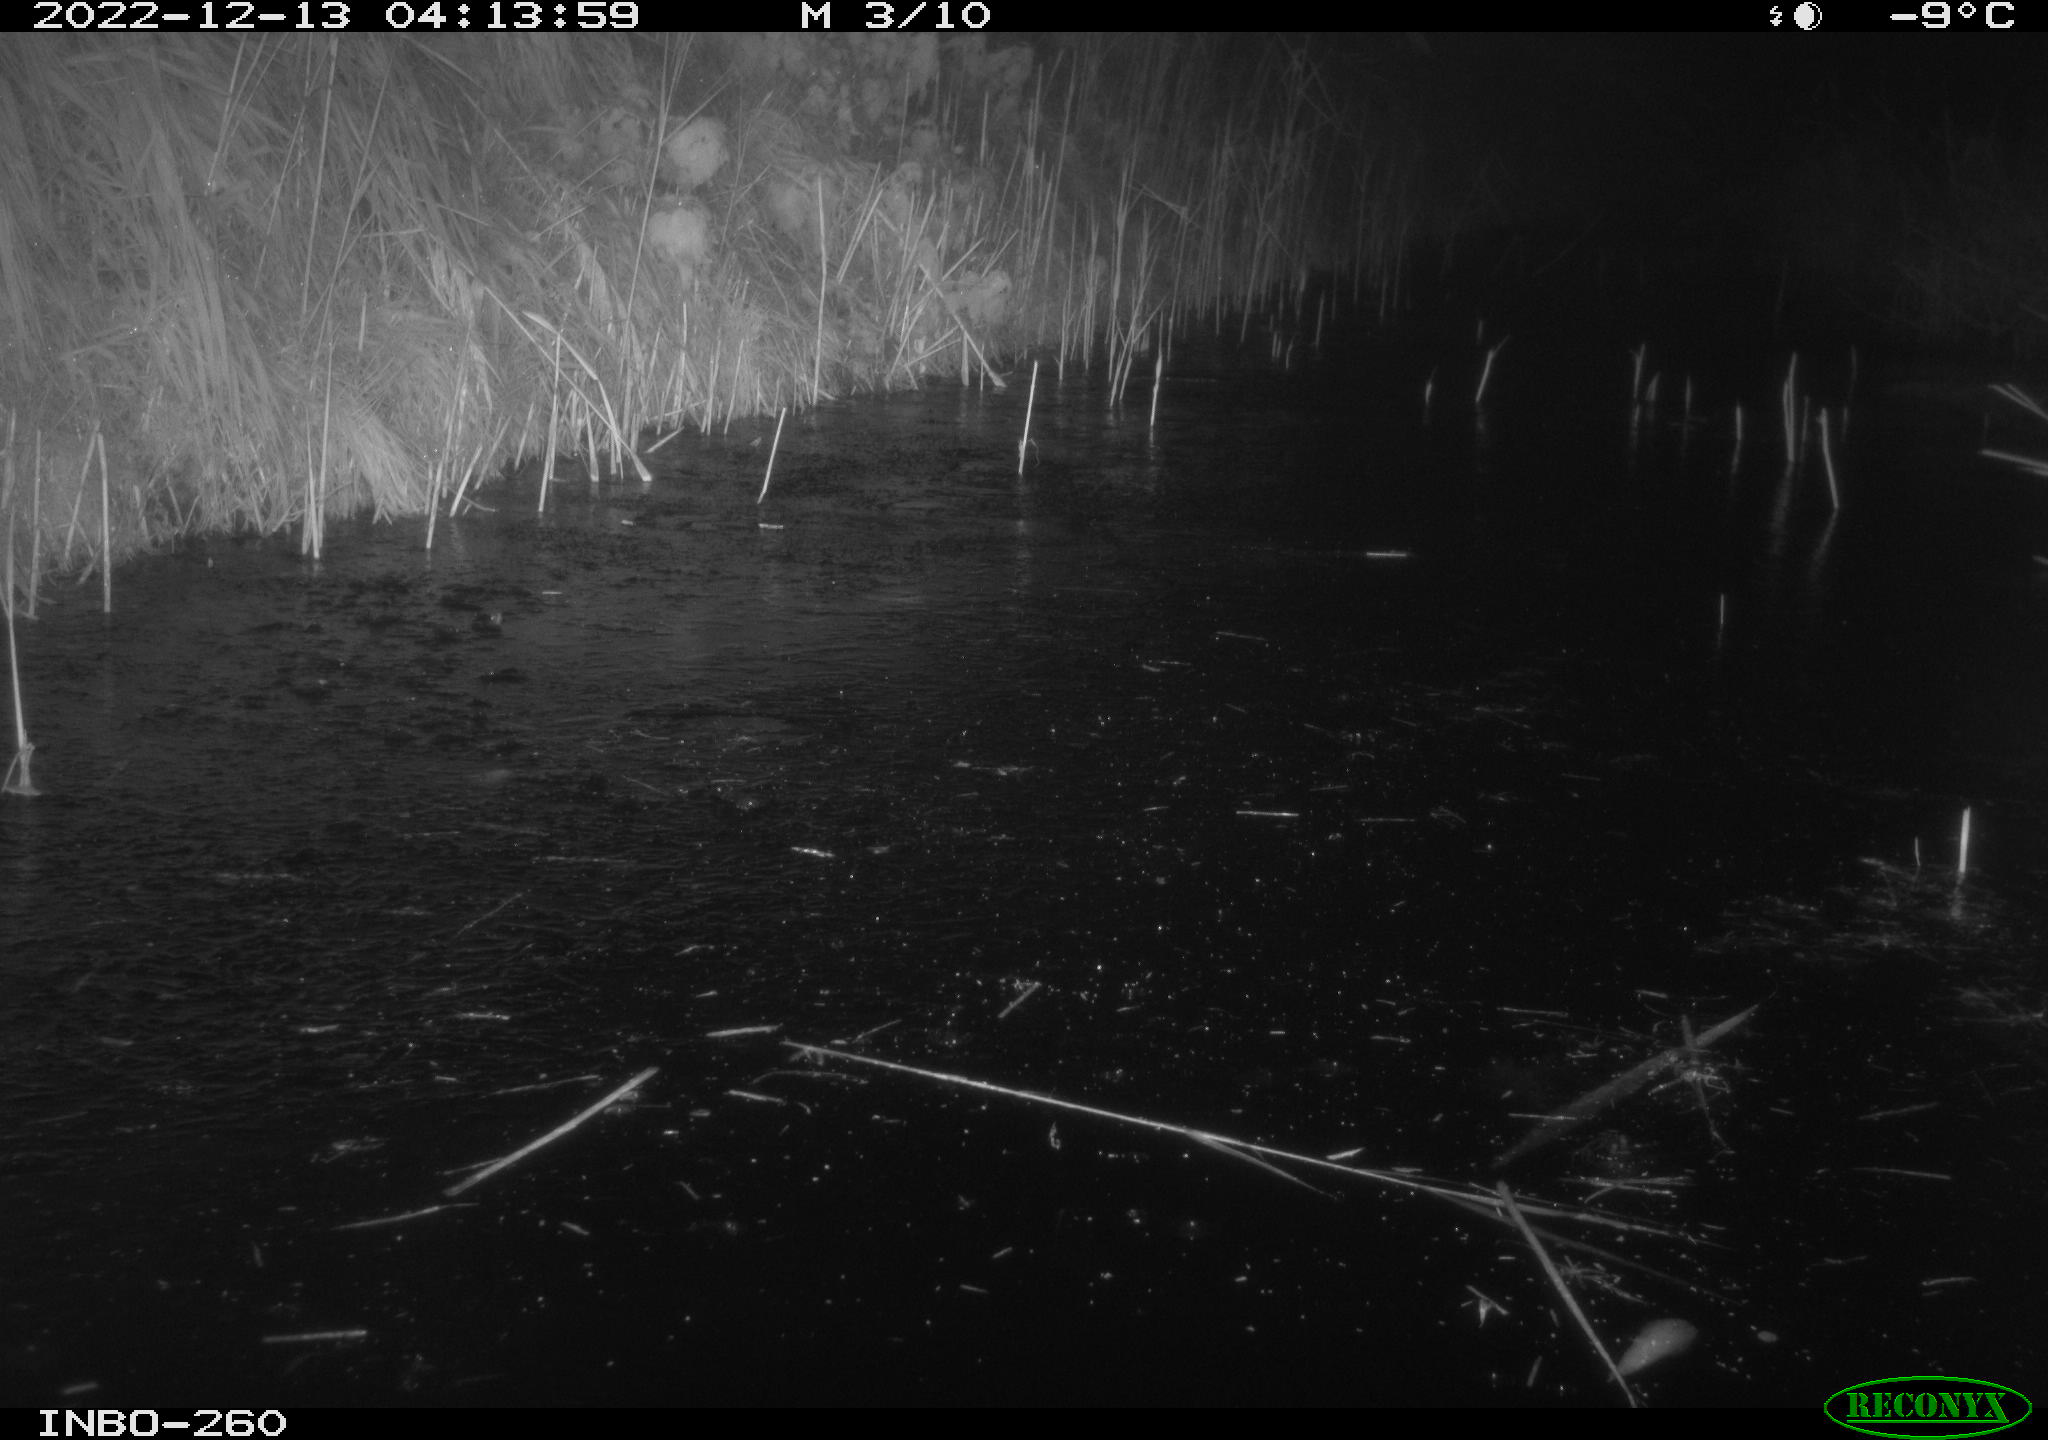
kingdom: Animalia
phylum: Chordata
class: Mammalia
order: Rodentia
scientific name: Rodentia
